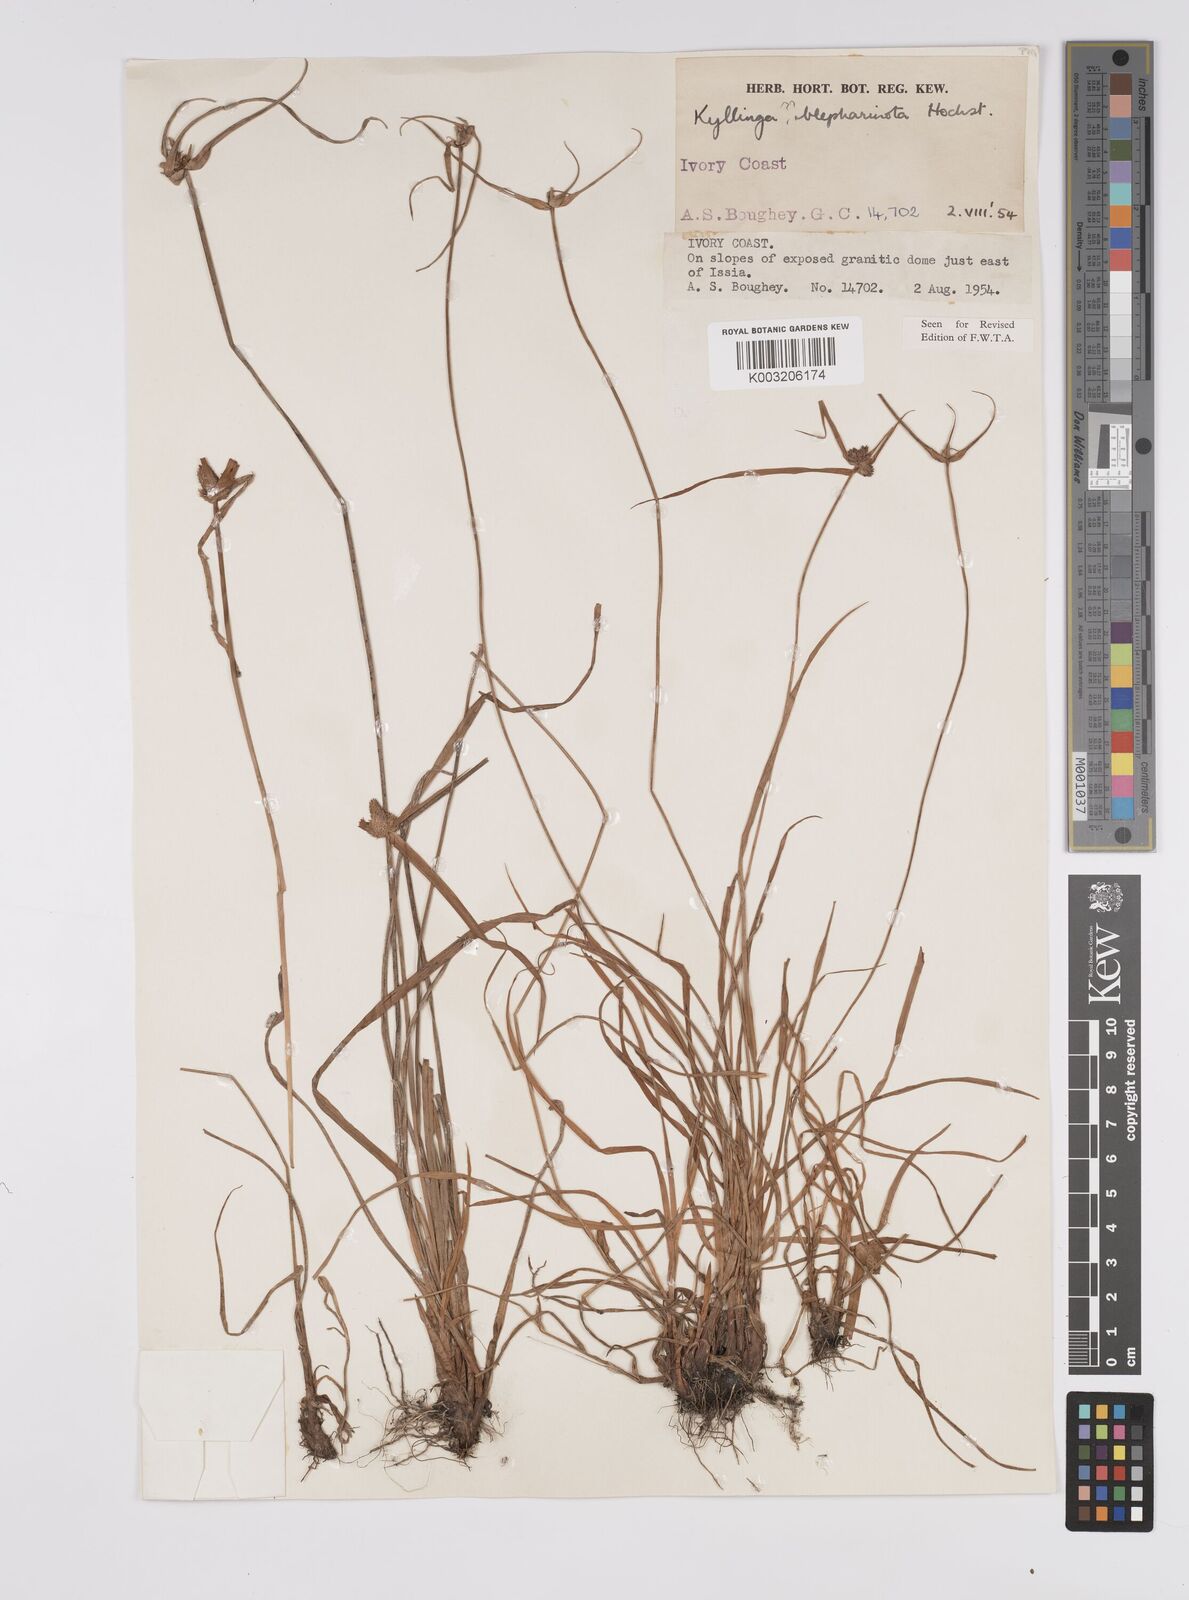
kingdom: Plantae
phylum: Tracheophyta
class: Liliopsida
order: Poales
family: Cyperaceae
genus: Cyperus
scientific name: Cyperus
